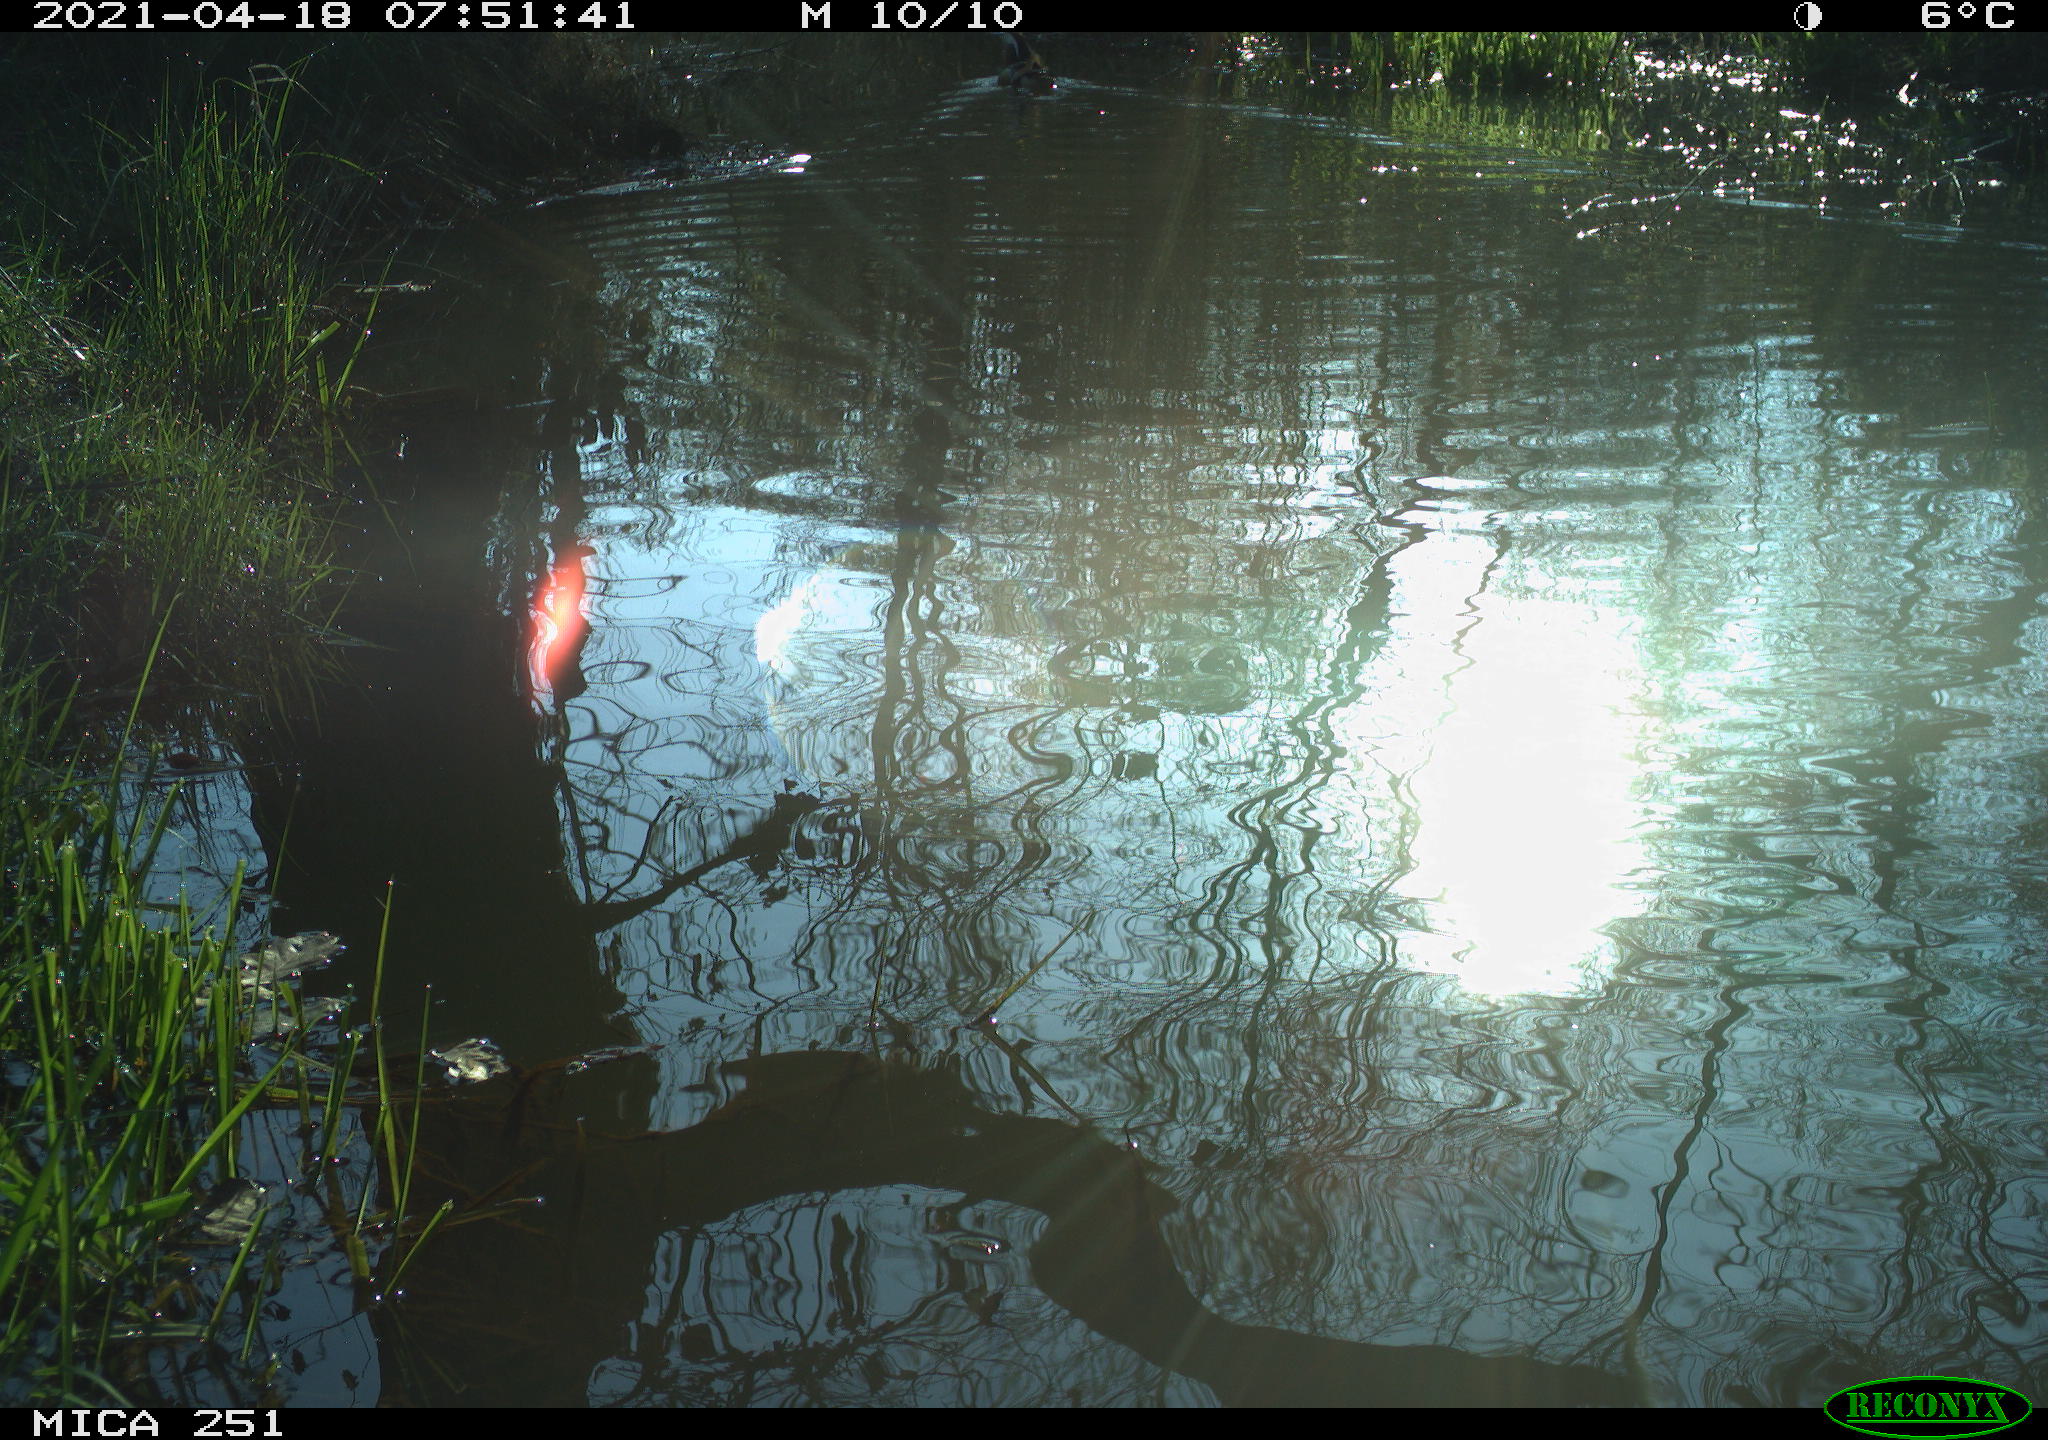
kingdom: Animalia
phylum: Chordata
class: Aves
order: Anseriformes
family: Anatidae
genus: Aix
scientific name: Aix galericulata
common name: Mandarin duck
